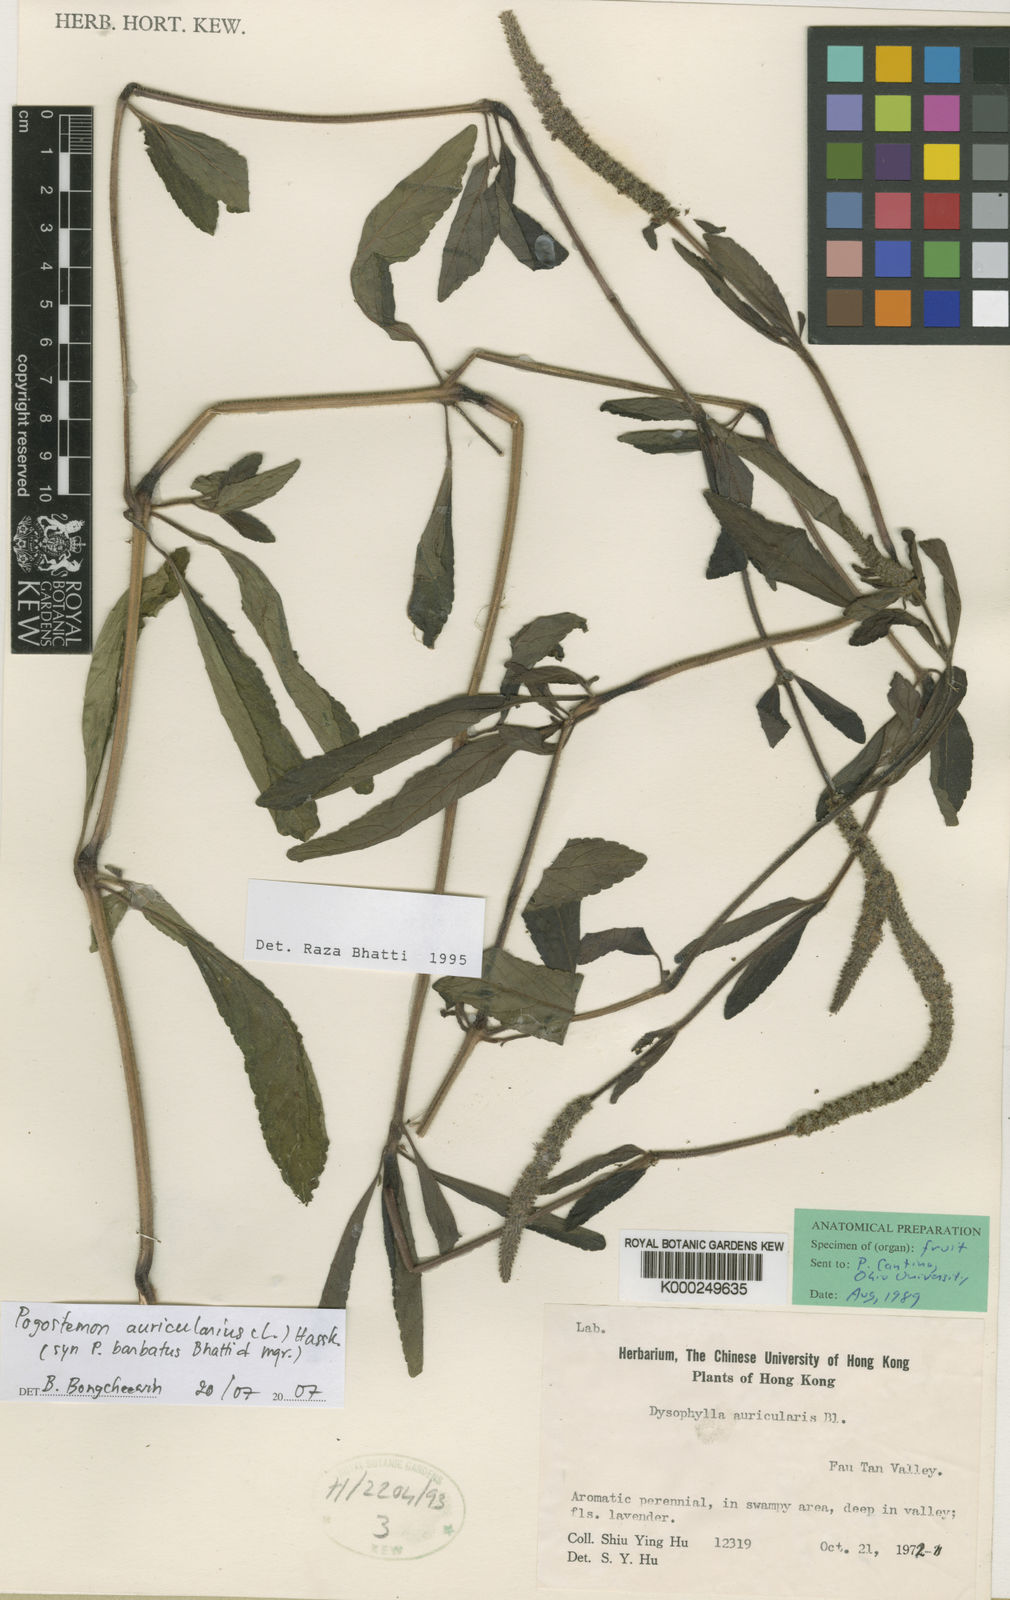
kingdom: Plantae
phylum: Tracheophyta
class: Magnoliopsida
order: Lamiales
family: Lamiaceae
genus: Pogostemon
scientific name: Pogostemon barbatus
